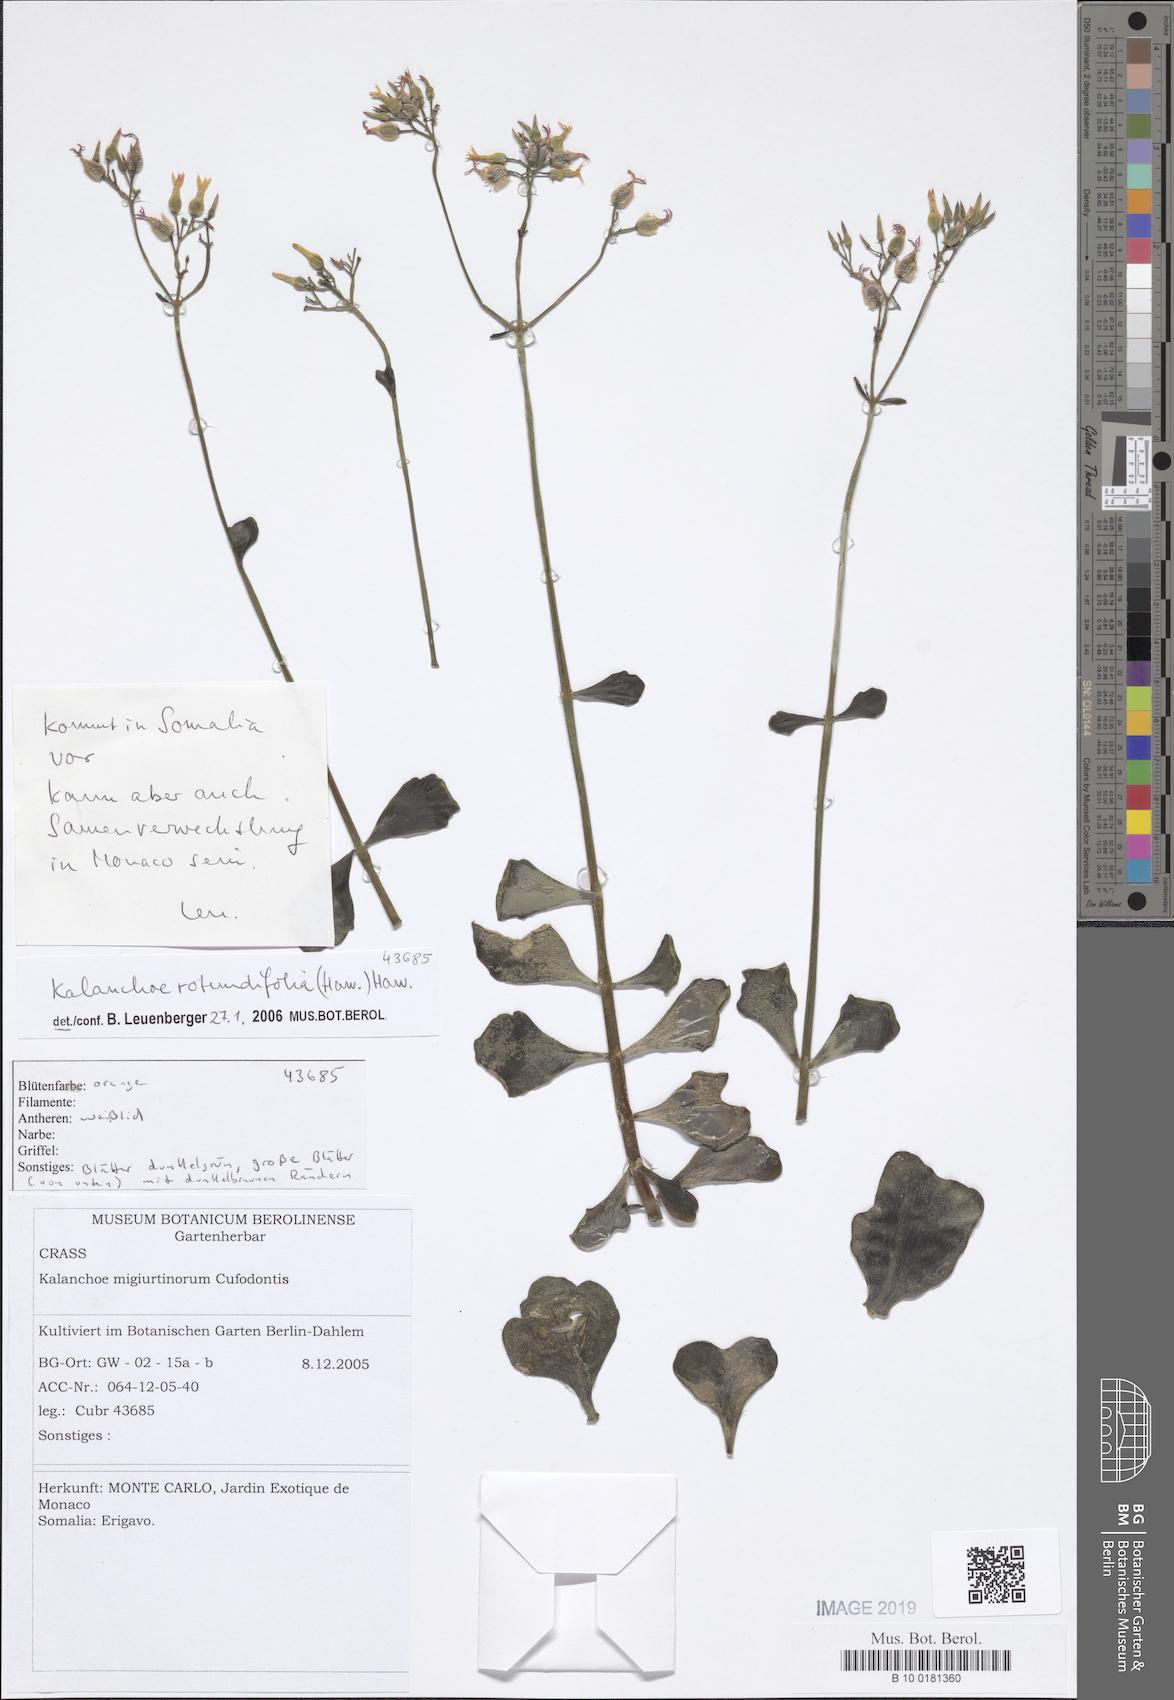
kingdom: Plantae
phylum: Tracheophyta
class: Magnoliopsida
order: Saxifragales
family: Crassulaceae
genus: Kalanchoe
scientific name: Kalanchoe rotundifolia
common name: Common kalanchoe
